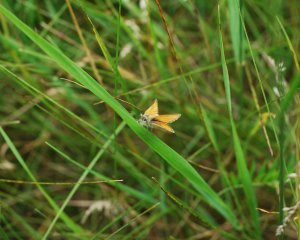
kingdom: Animalia
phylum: Arthropoda
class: Insecta
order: Lepidoptera
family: Hesperiidae
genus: Thymelicus
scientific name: Thymelicus lineola
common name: European Skipper
